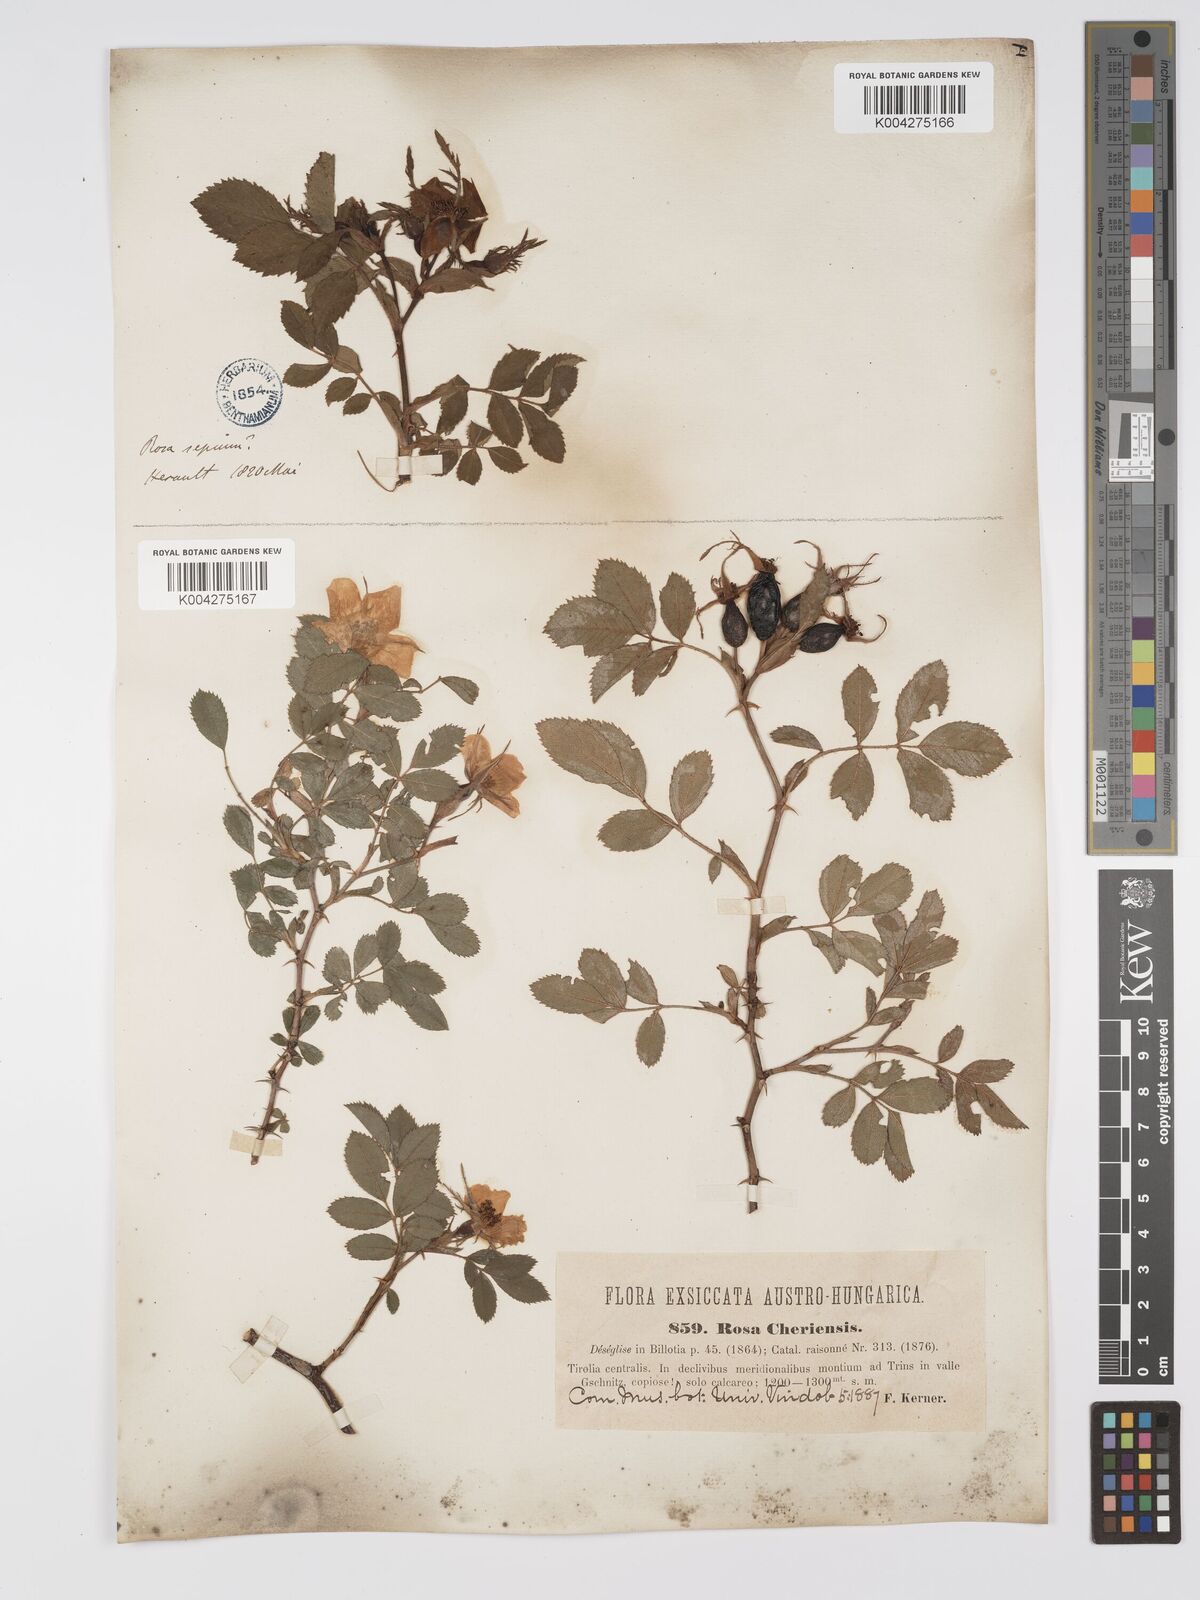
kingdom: Plantae
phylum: Tracheophyta
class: Magnoliopsida
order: Rosales
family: Rosaceae
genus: Rosa
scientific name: Rosa
